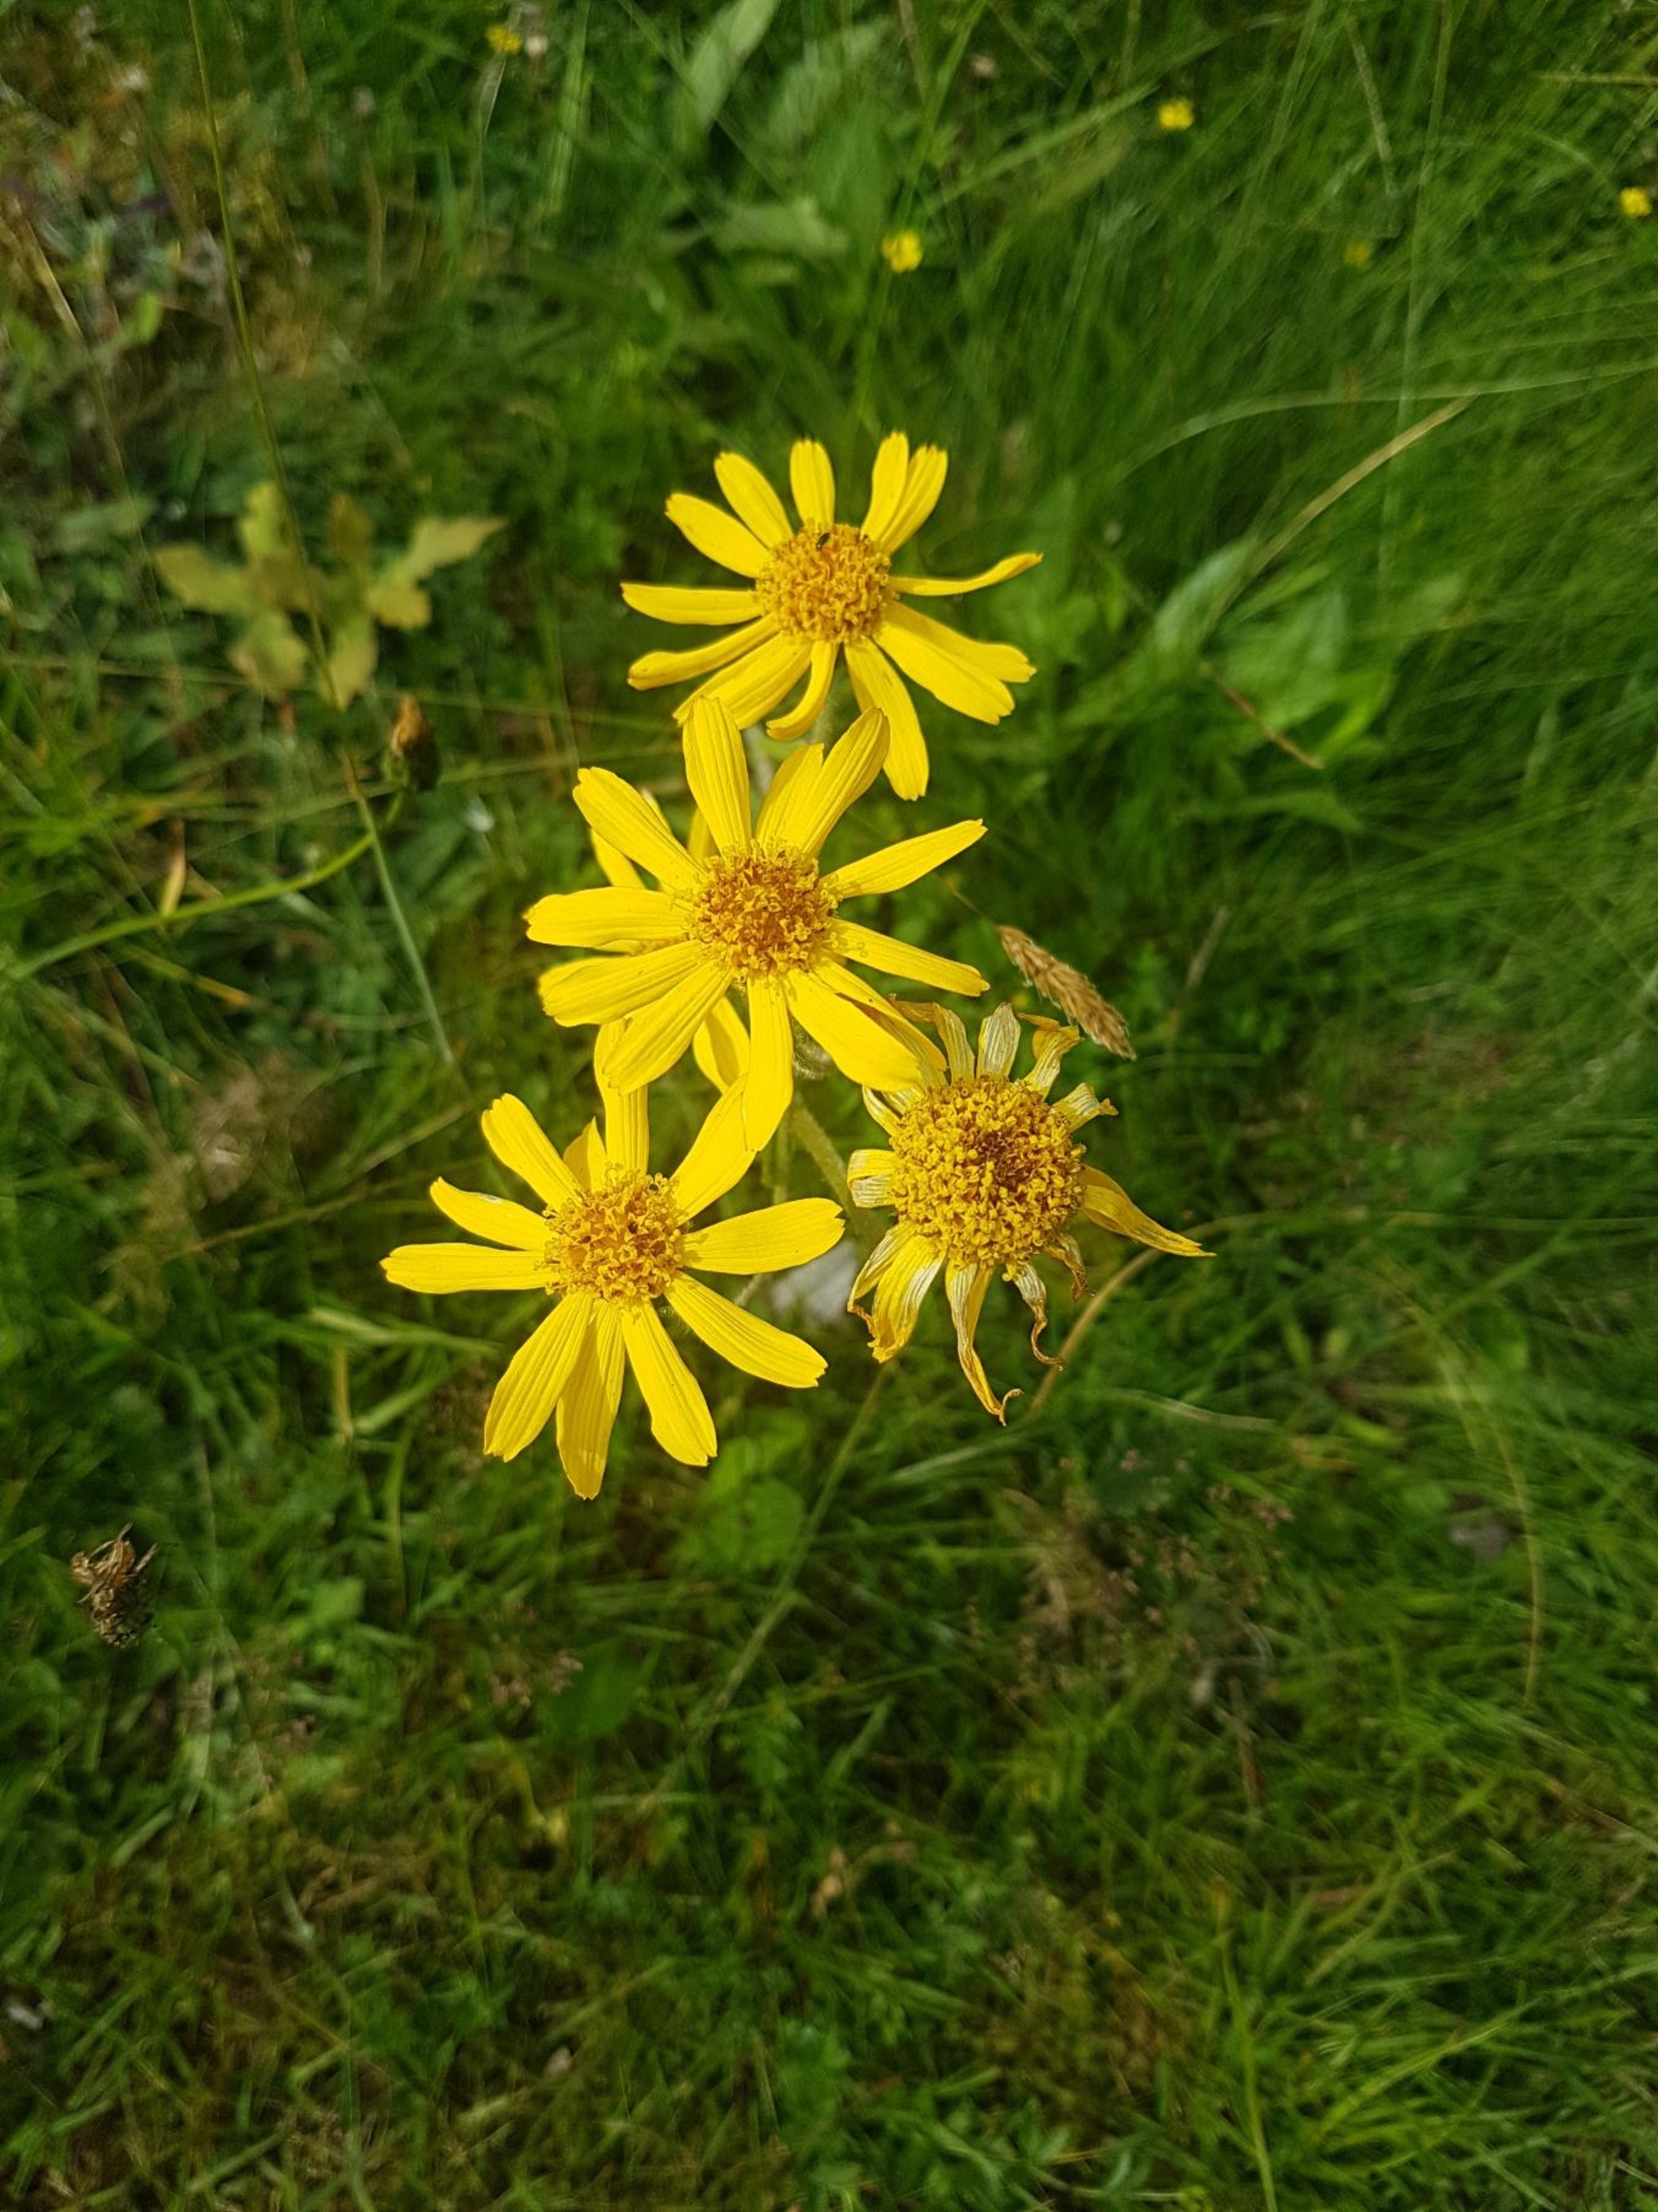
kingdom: Plantae
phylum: Tracheophyta
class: Magnoliopsida
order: Asterales
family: Asteraceae
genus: Arnica
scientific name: Arnica montana
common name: Guldblomme
